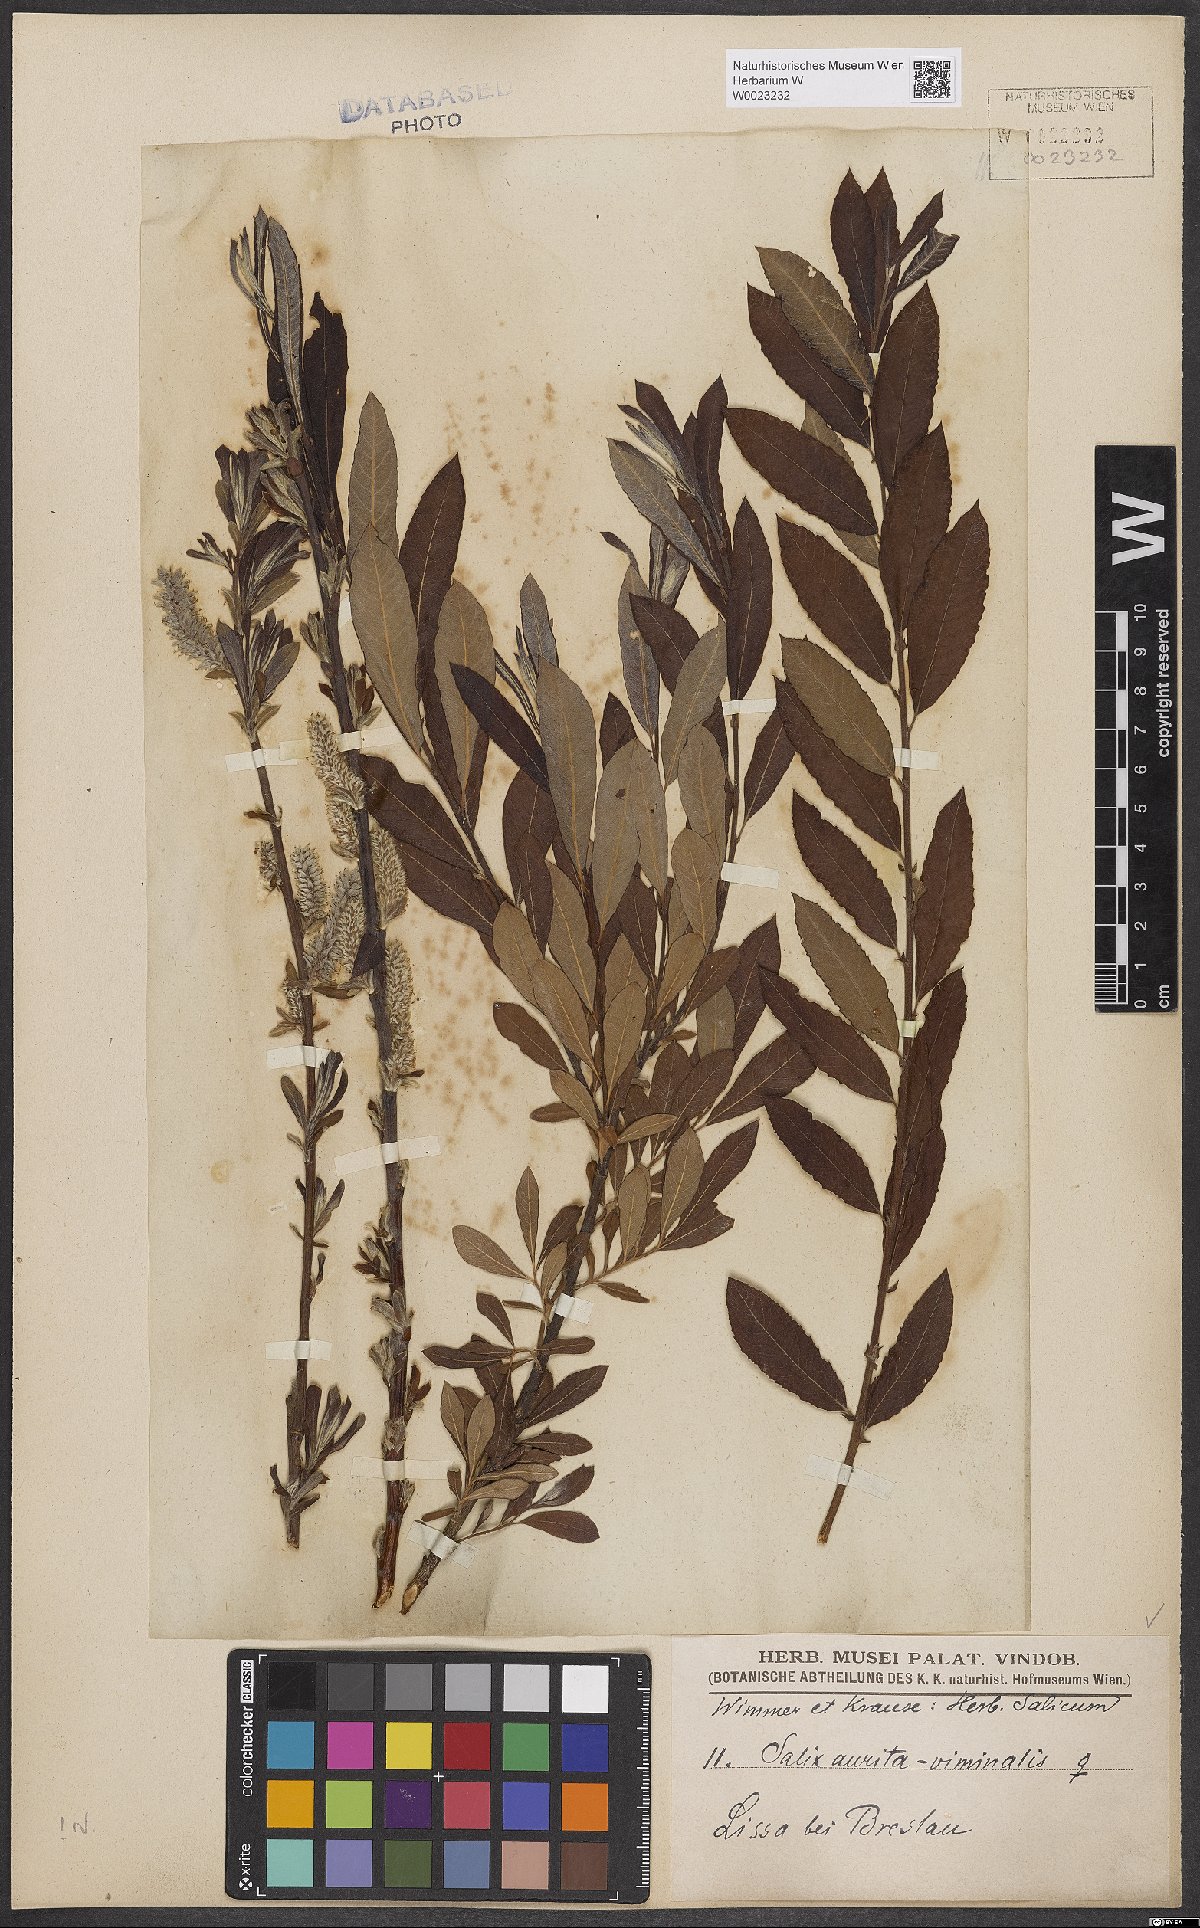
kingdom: Plantae
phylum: Tracheophyta
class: Magnoliopsida
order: Malpighiales
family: Salicaceae
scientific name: Salicaceae
